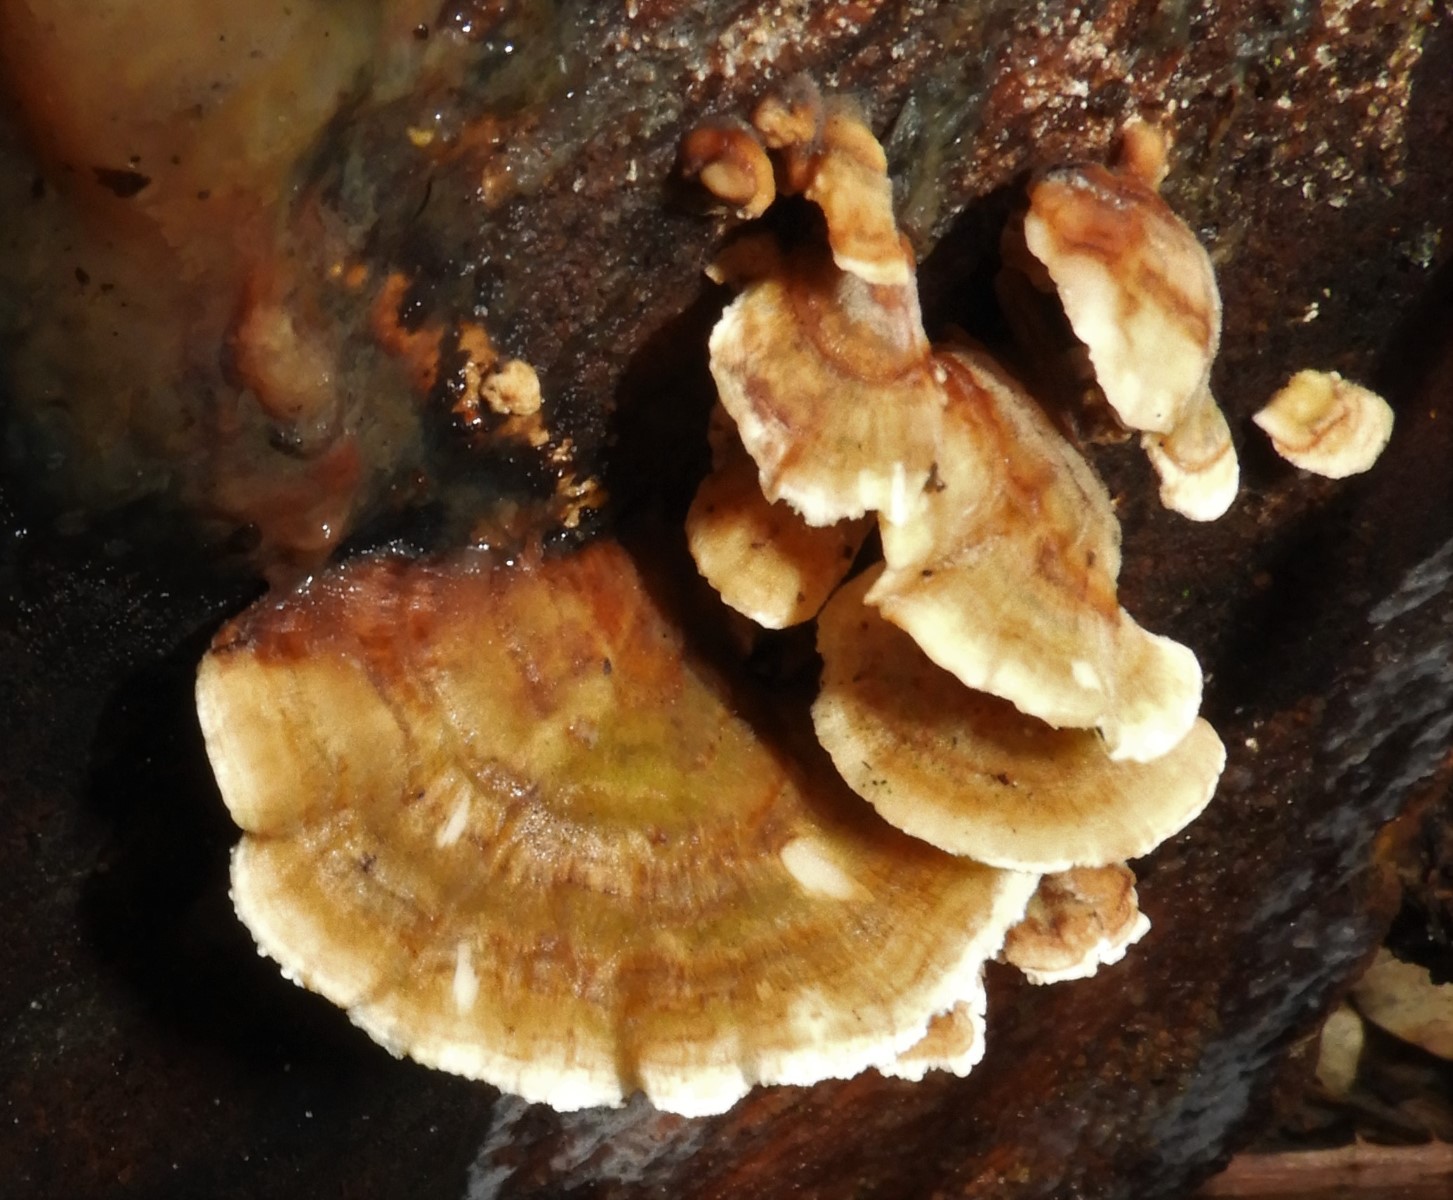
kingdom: Fungi
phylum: Basidiomycota
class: Agaricomycetes
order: Polyporales
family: Polyporaceae
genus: Trametes
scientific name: Trametes
